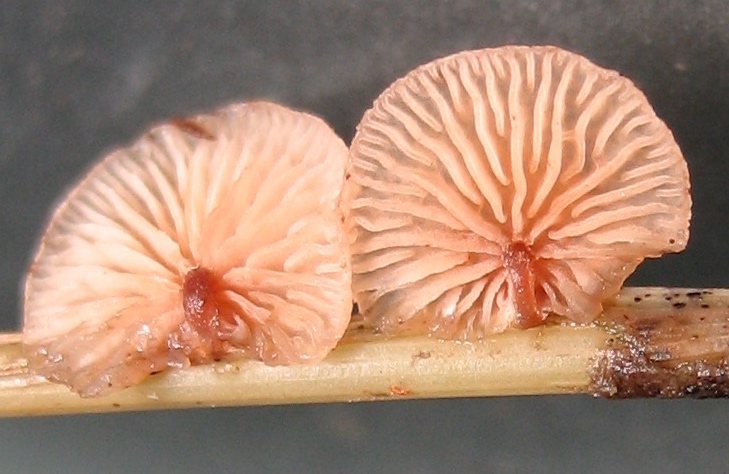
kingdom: Fungi
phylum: Basidiomycota
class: Agaricomycetes
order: Agaricales
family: Strophariaceae
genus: Deconica
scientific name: Deconica phillipsii
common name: almindelig stråhat
